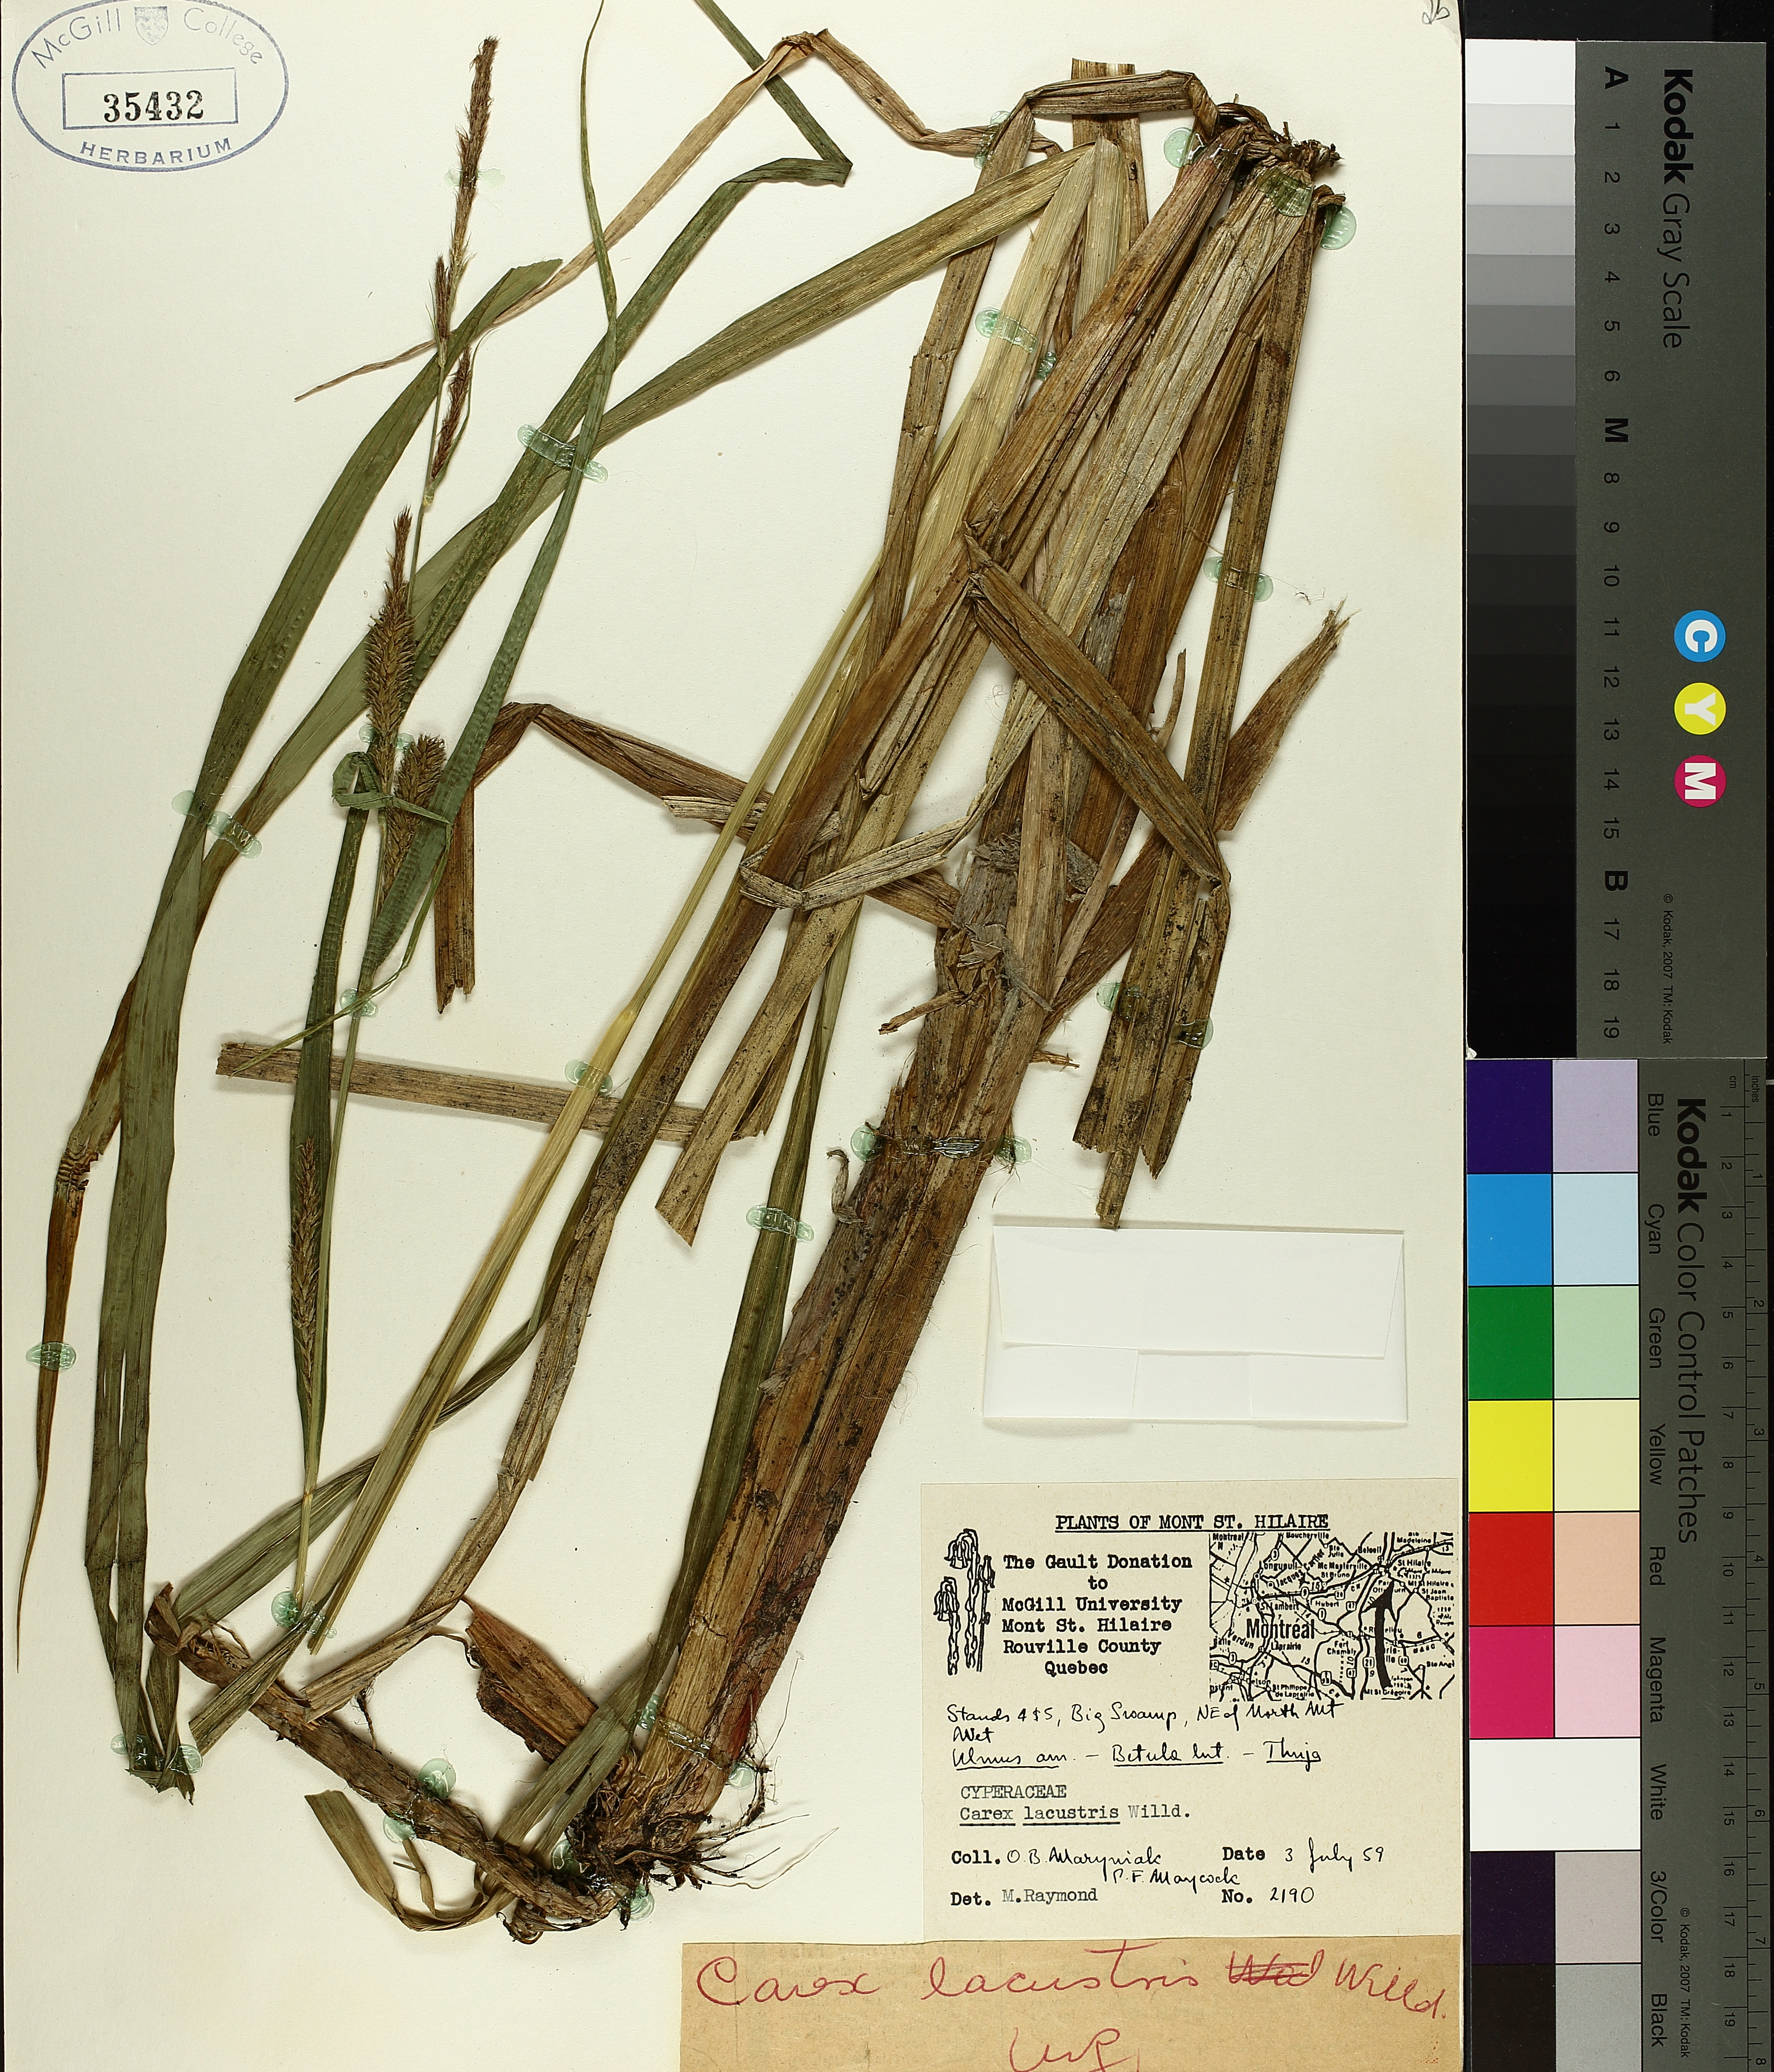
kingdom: Plantae
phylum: Tracheophyta
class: Liliopsida
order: Poales
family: Cyperaceae
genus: Carex
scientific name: Carex lacustris
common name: Common lake sedge
